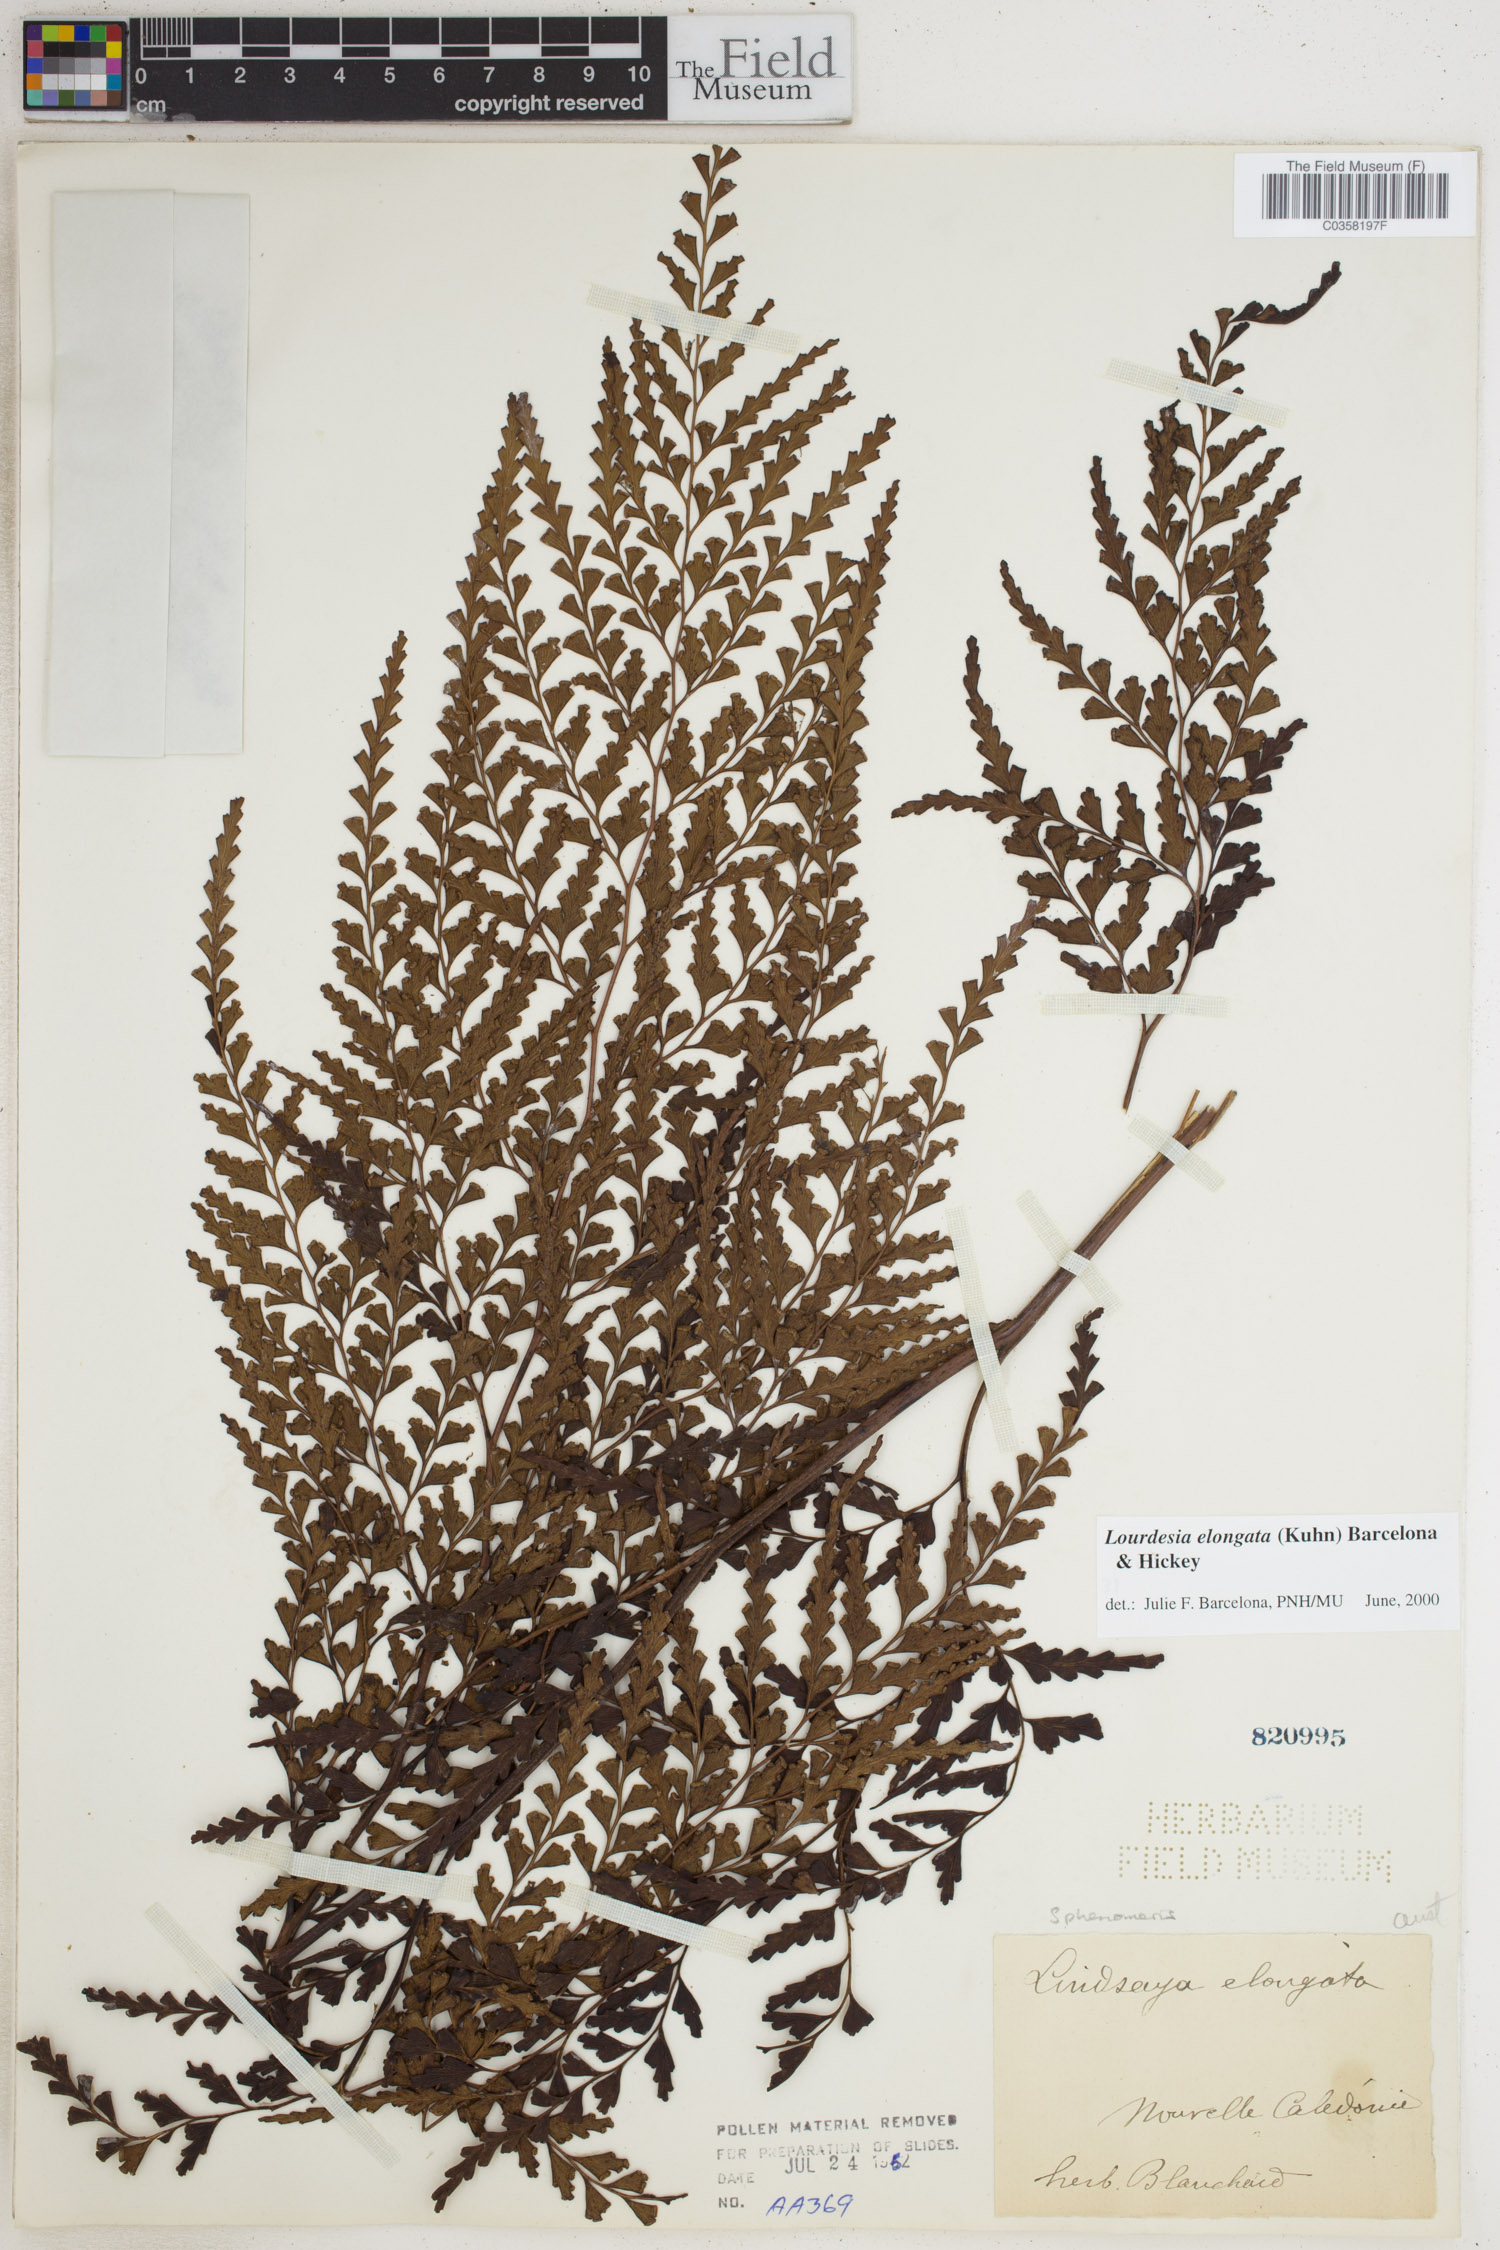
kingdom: Plantae
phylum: Tracheophyta
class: Polypodiopsida
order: Polypodiales
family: Lindsaeaceae
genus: Odontosoria
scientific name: Odontosoria deltoidea
